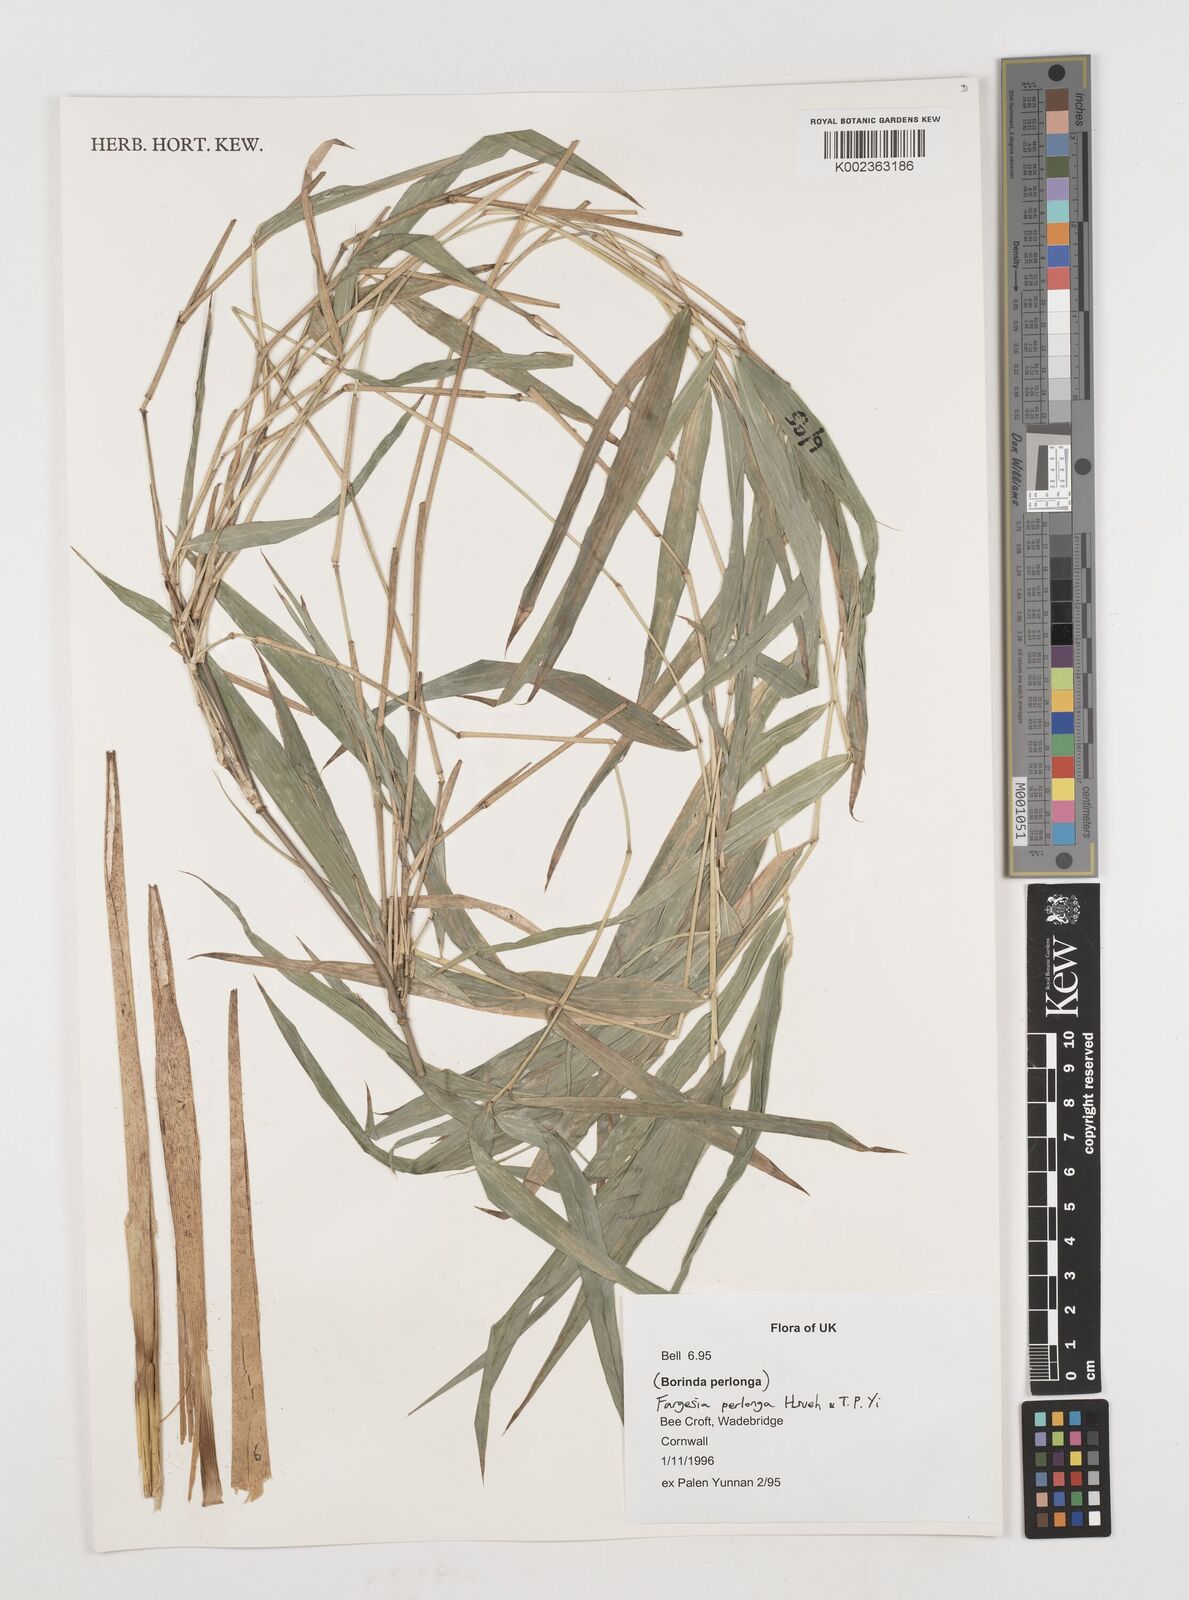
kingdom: Plantae
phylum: Tracheophyta
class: Liliopsida
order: Poales
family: Poaceae
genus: Borinda
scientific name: Borinda perlonga
